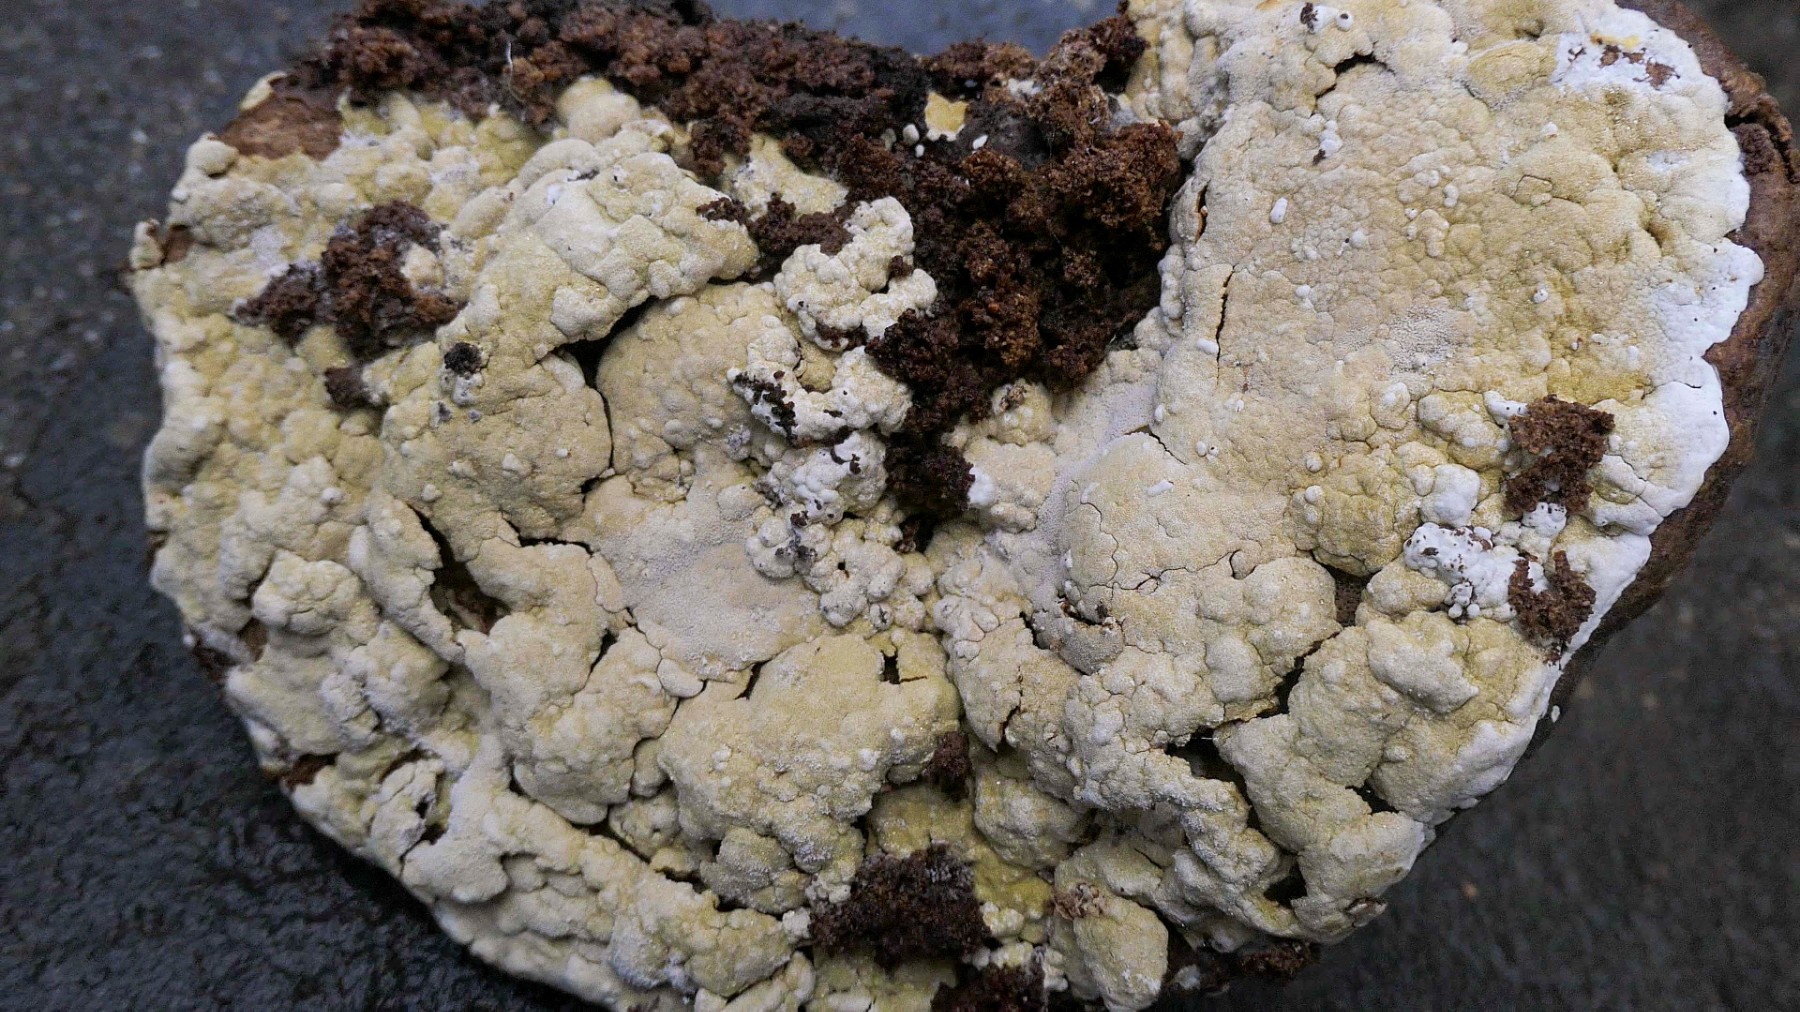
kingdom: Fungi
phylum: Ascomycota
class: Sordariomycetes
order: Hypocreales
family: Hypocreaceae
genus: Trichoderma
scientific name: Trichoderma pulvinatum
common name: snyltende kødkerne
